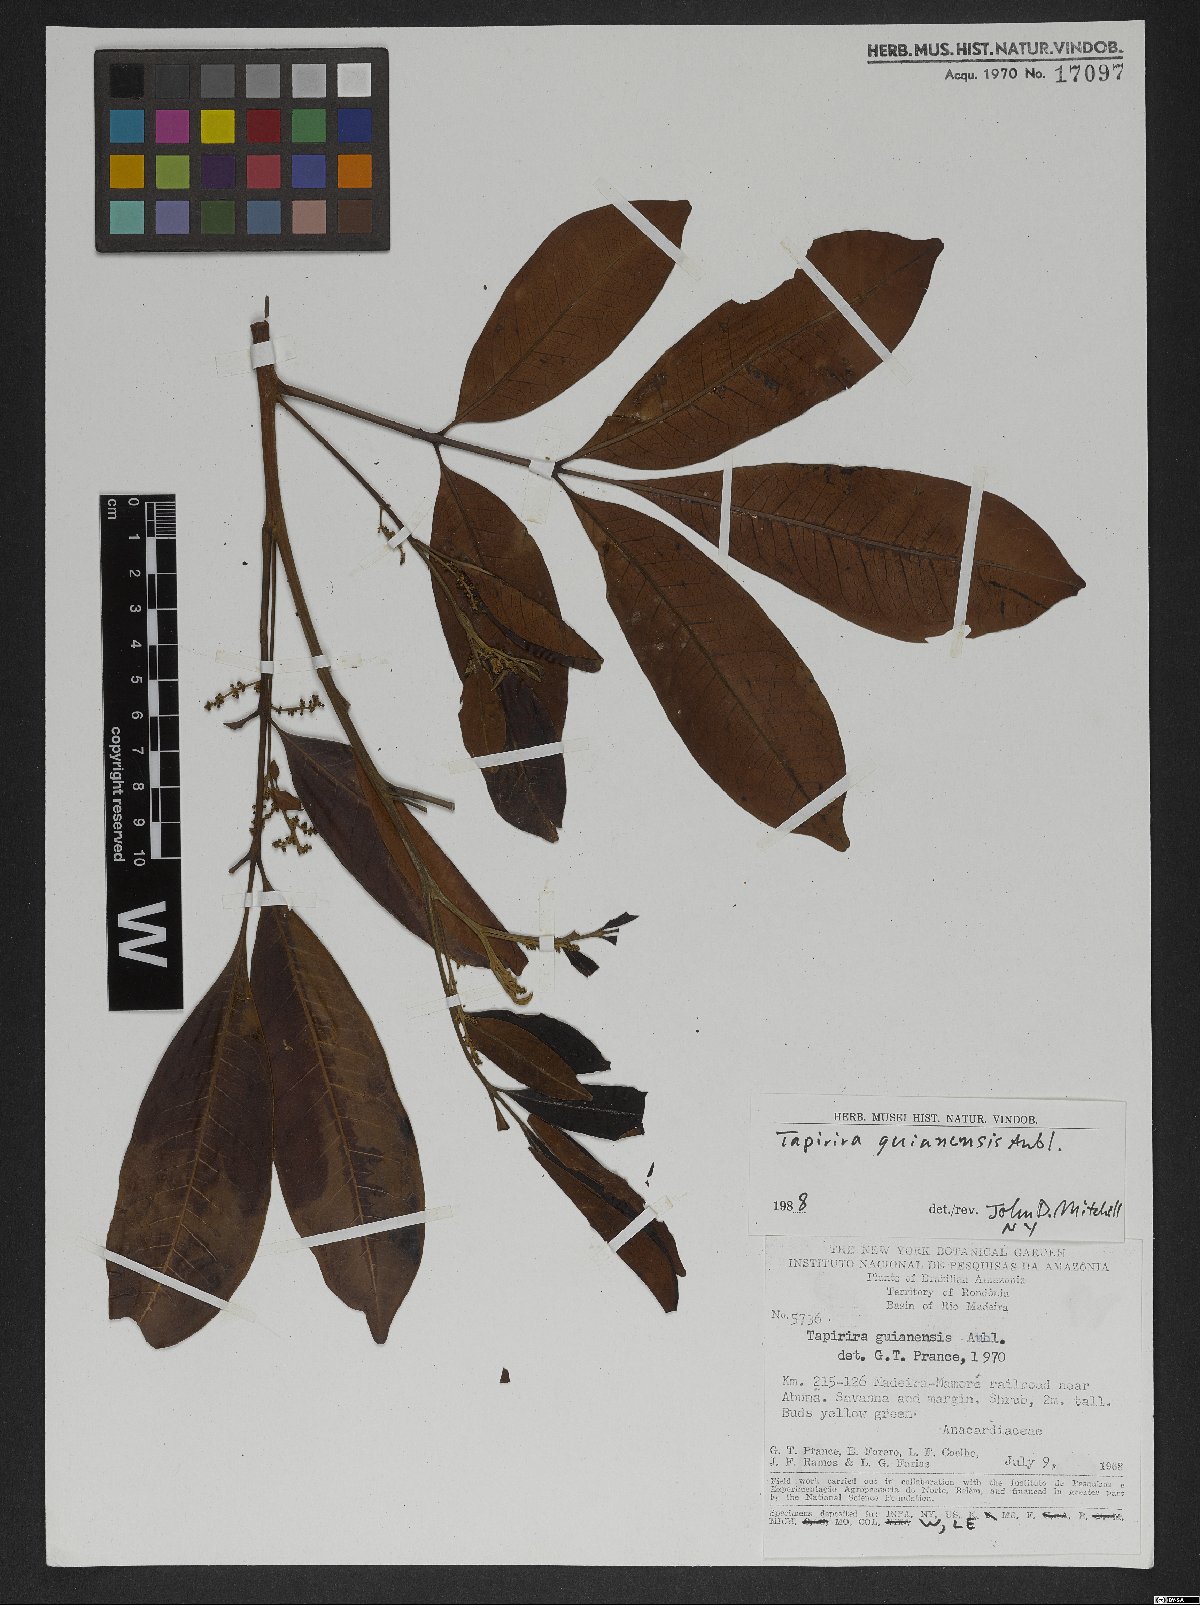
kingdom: Plantae
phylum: Tracheophyta
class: Magnoliopsida
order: Sapindales
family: Anacardiaceae
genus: Tapirira
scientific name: Tapirira guianensis
